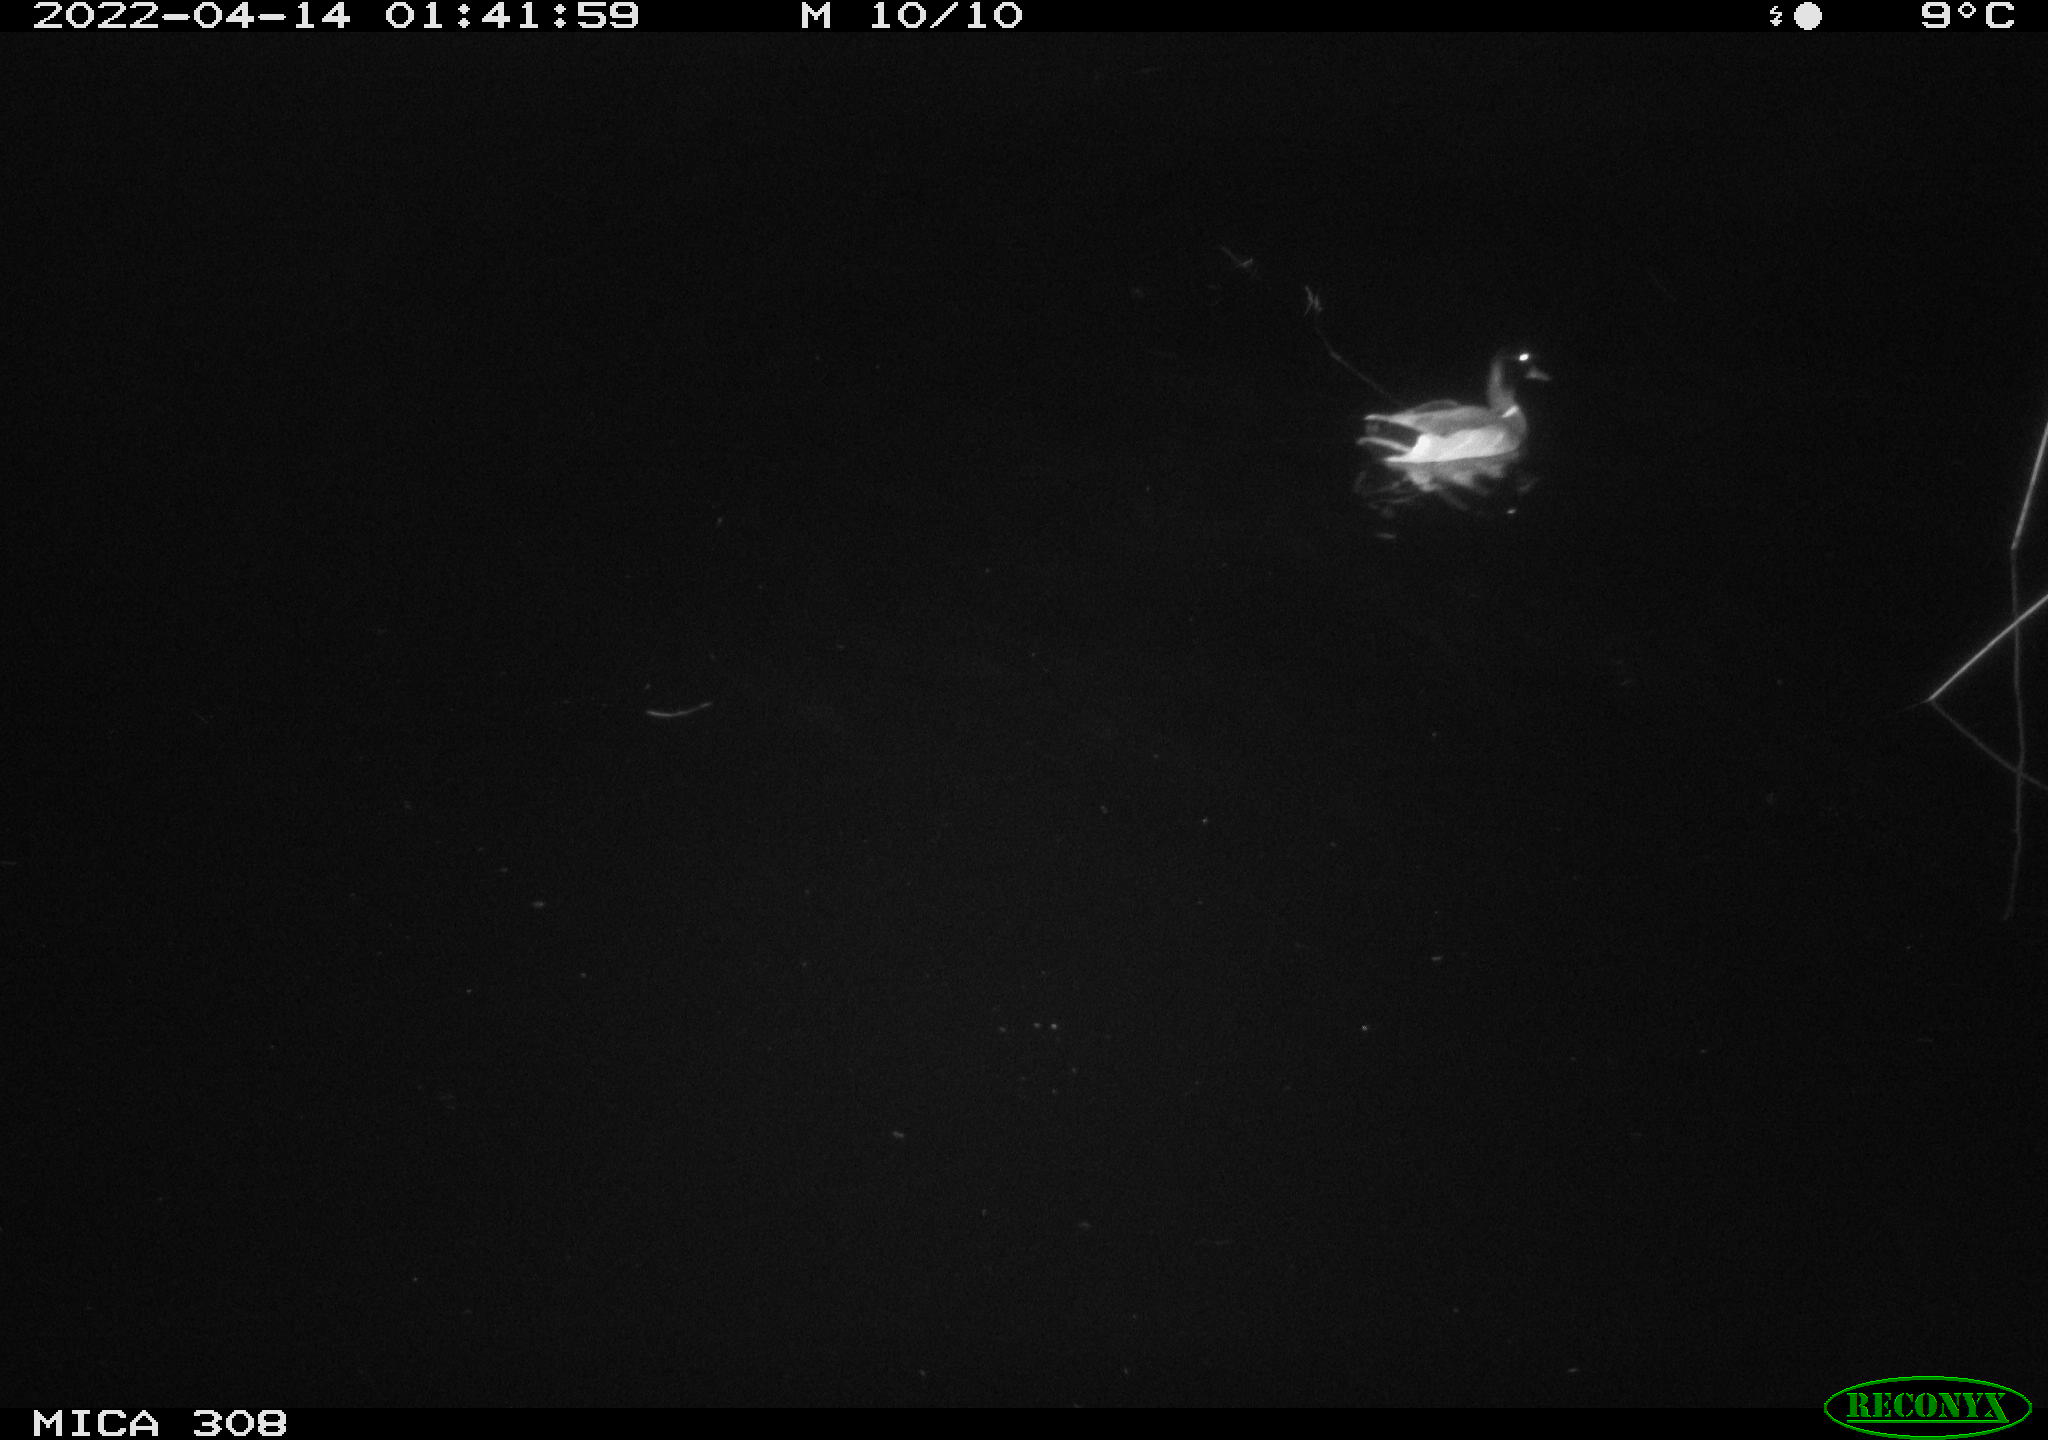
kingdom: Animalia
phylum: Chordata
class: Aves
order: Anseriformes
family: Anatidae
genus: Anas
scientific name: Anas platyrhynchos
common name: Mallard
